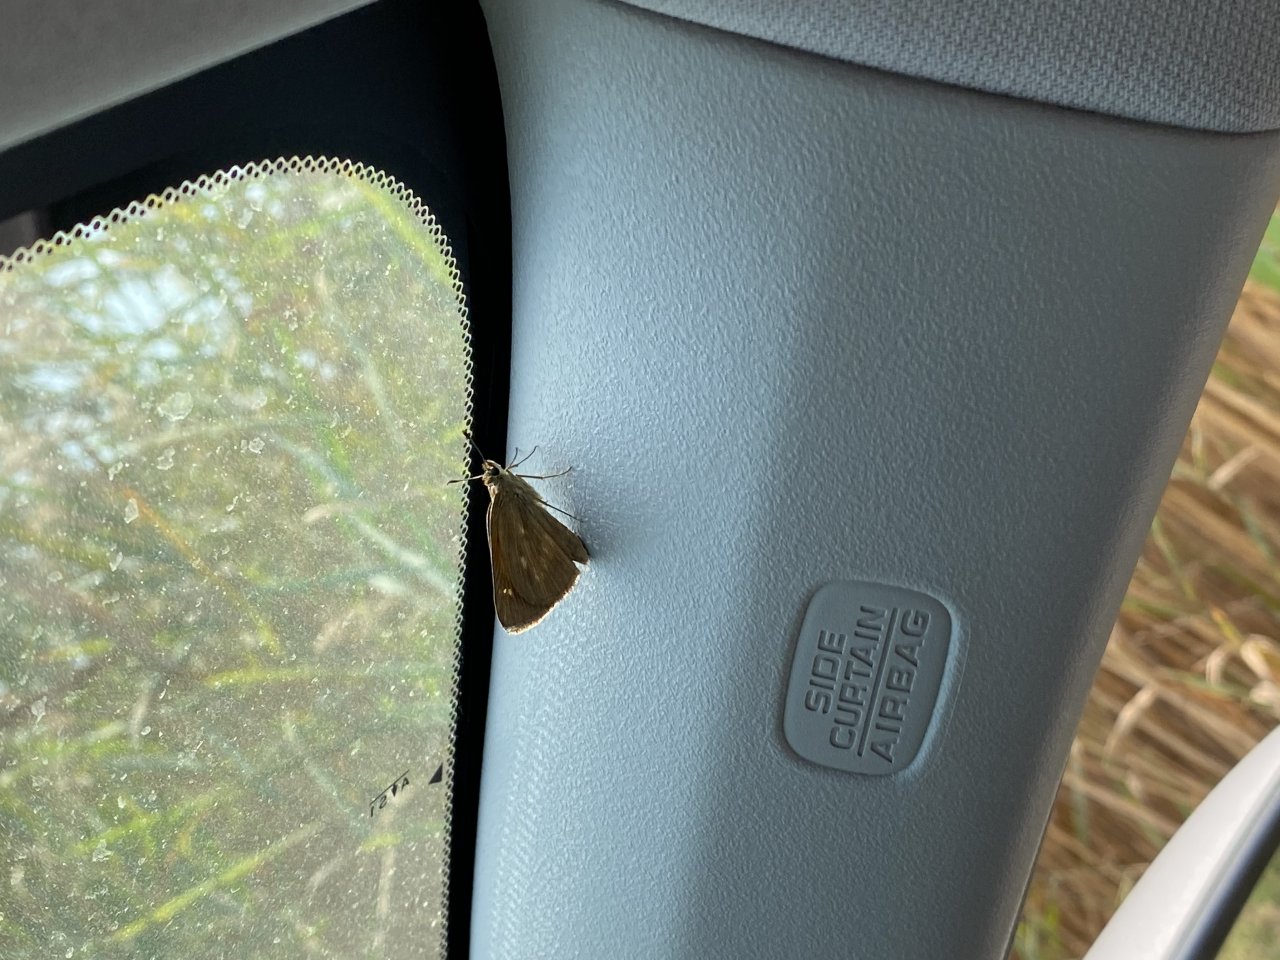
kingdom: Animalia
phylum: Arthropoda
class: Insecta
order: Lepidoptera
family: Hesperiidae
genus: Polites
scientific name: Polites egeremet
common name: Northern Broken-Dash
